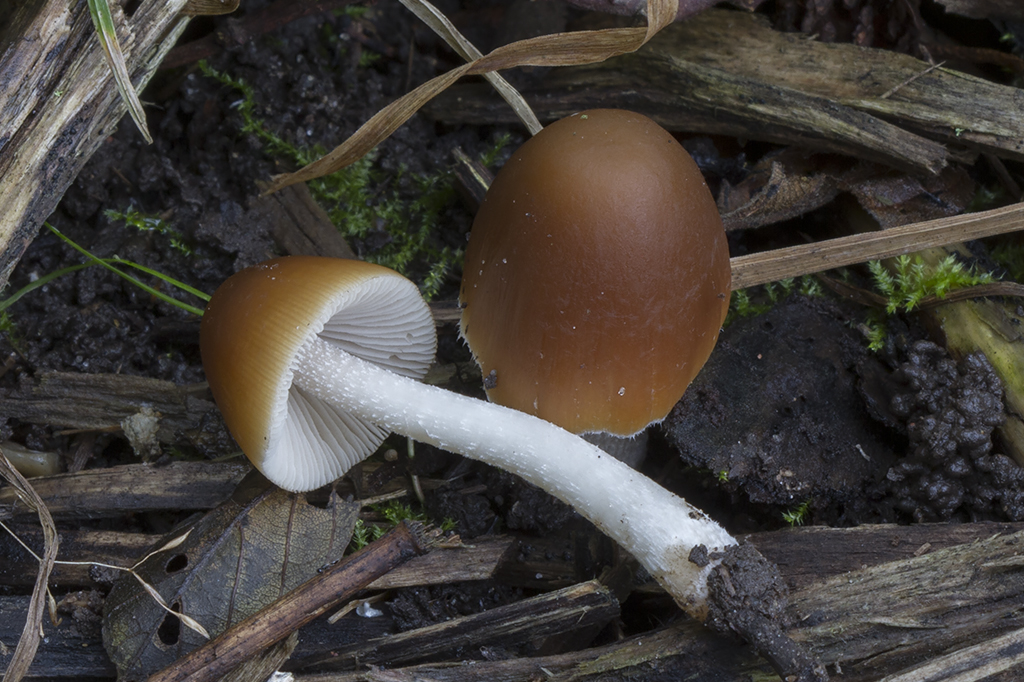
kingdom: Fungi
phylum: Basidiomycota
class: Agaricomycetes
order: Agaricales
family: Psathyrellaceae
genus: Psathyrella
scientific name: Psathyrella fusca
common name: gråbladet mørkhat
